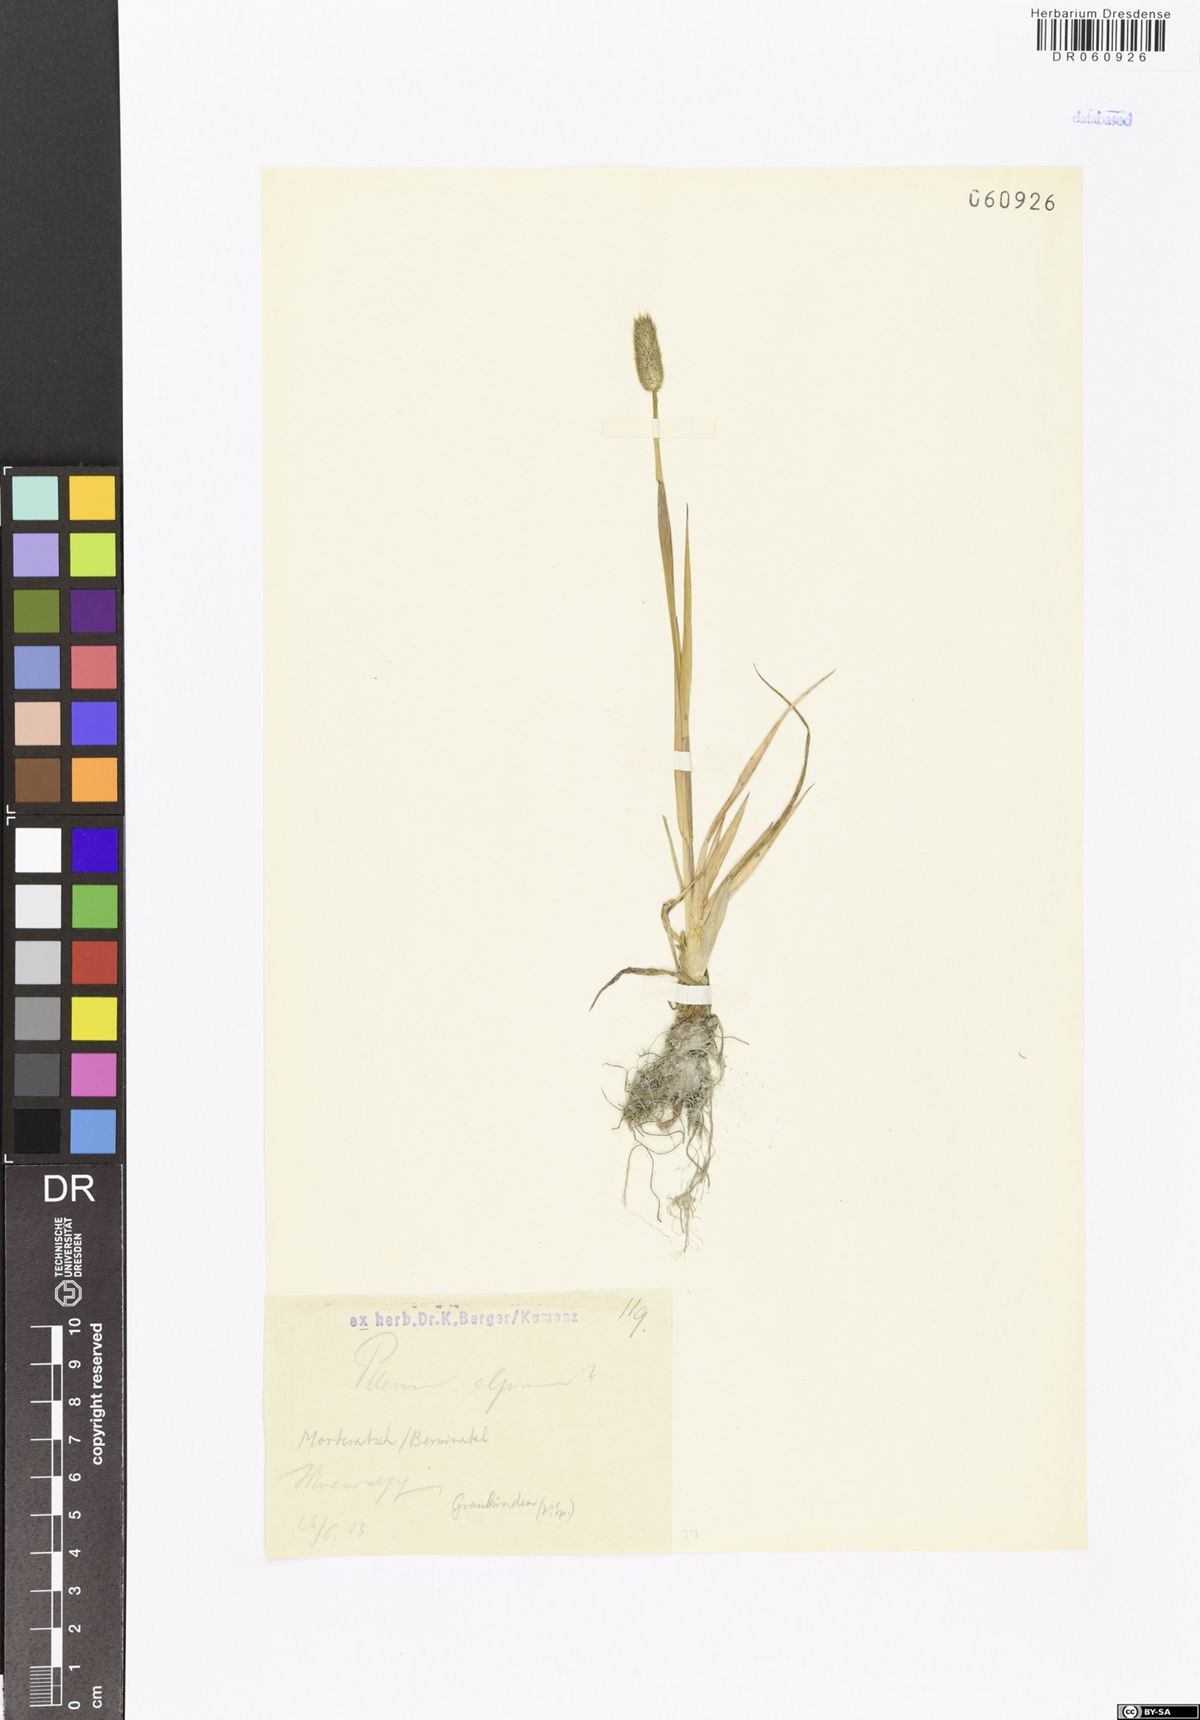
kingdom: Plantae
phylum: Tracheophyta
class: Liliopsida
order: Poales
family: Poaceae
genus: Phleum
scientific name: Phleum alpinum
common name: Alpine cat's-tail
